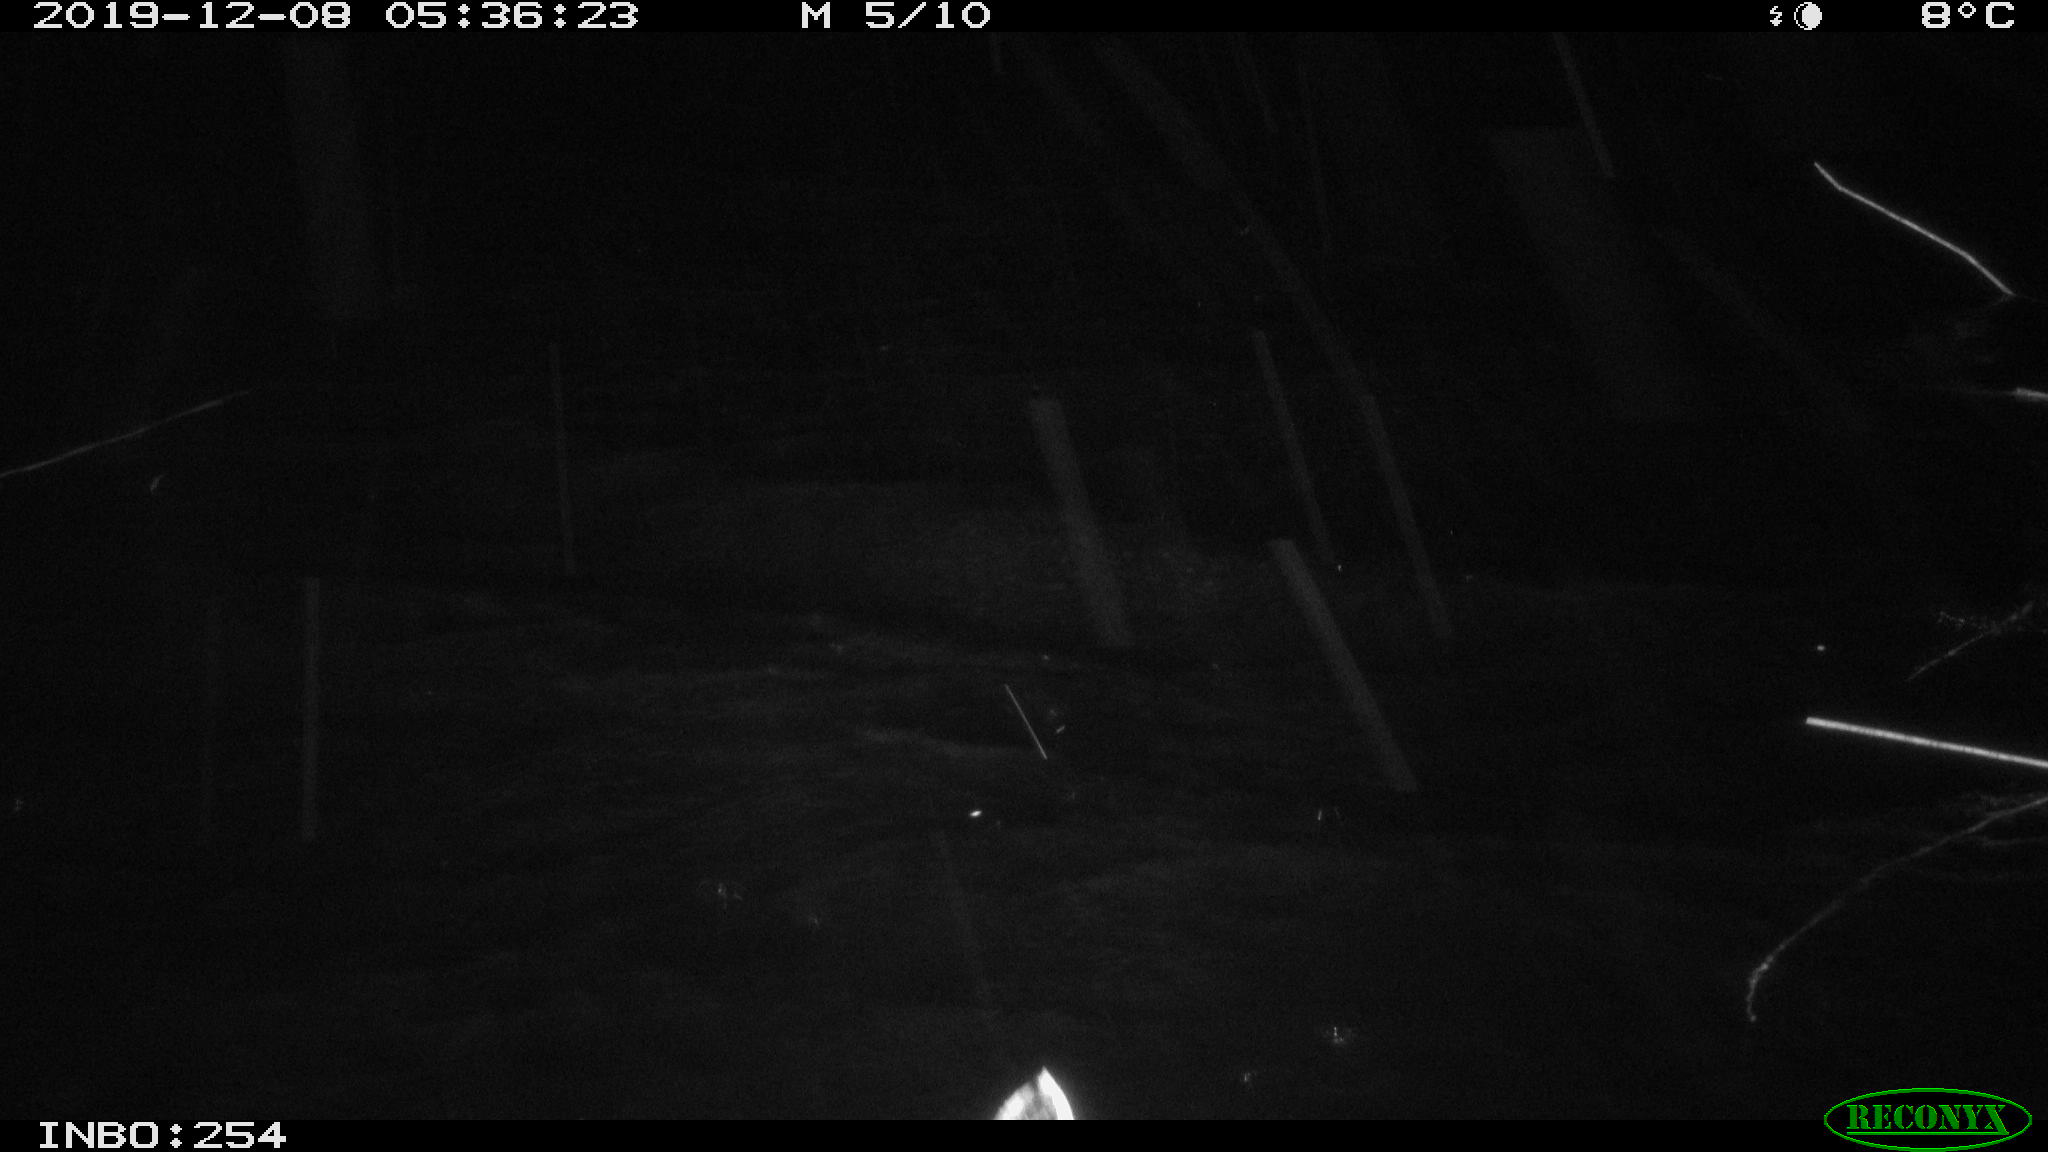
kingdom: Animalia
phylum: Chordata
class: Aves
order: Anseriformes
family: Anatidae
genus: Anas
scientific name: Anas platyrhynchos
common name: Mallard
